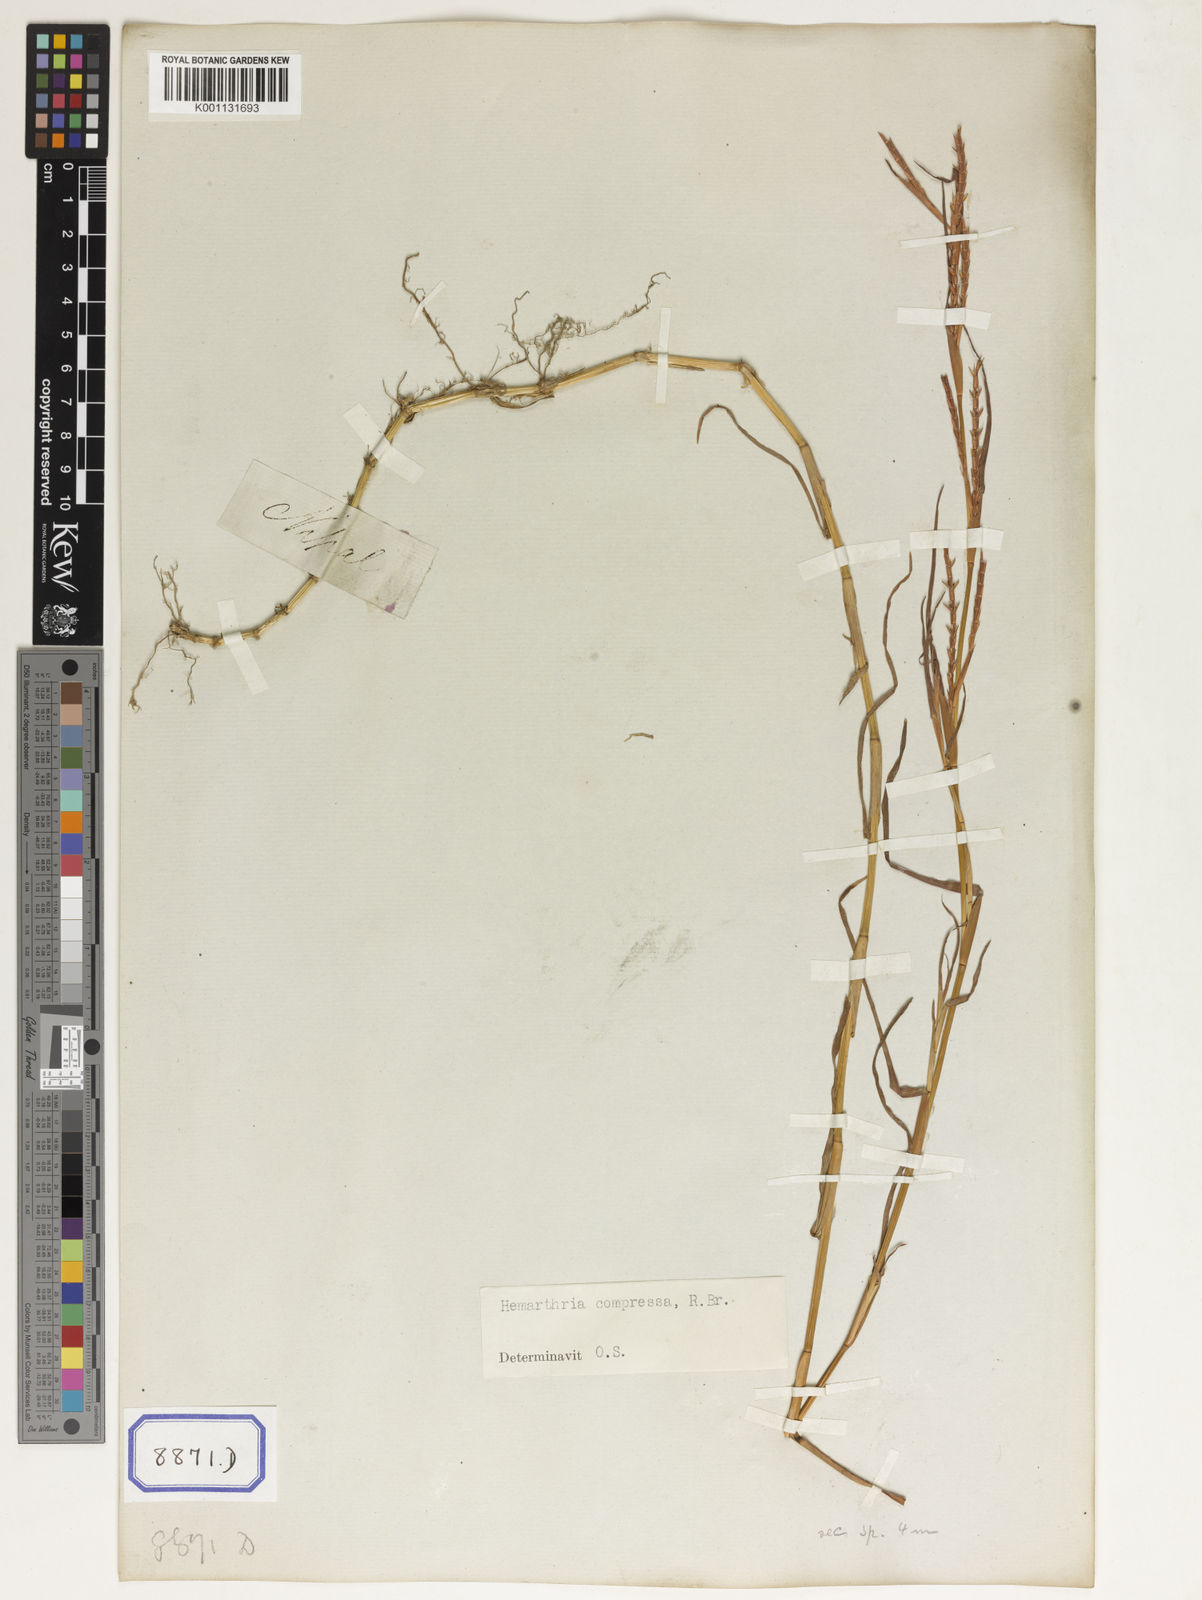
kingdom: Plantae
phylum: Tracheophyta
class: Liliopsida
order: Poales
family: Poaceae
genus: Hemarthria
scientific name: Hemarthria
